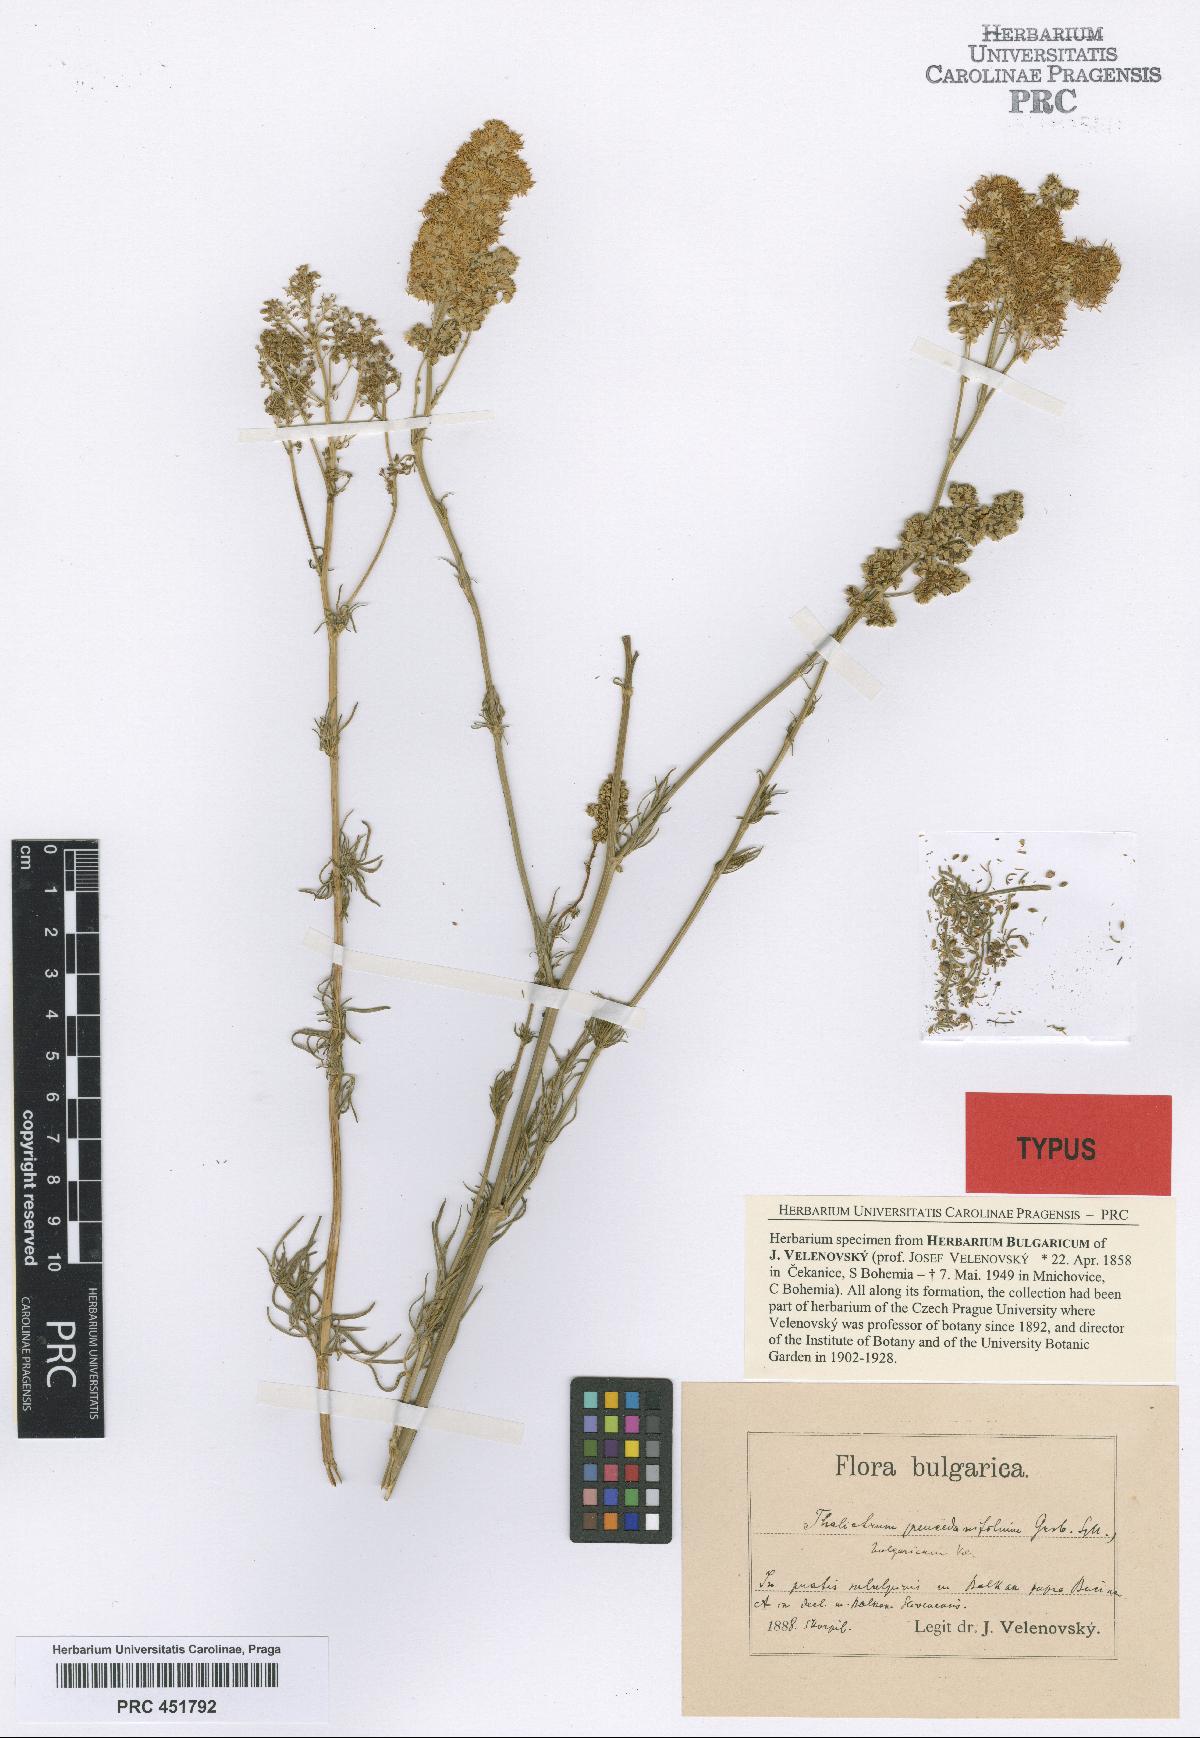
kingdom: Plantae
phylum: Tracheophyta
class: Magnoliopsida
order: Ranunculales
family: Ranunculaceae
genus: Thalictrum
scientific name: Thalictrum lucidum
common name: Shining meadow-rue
